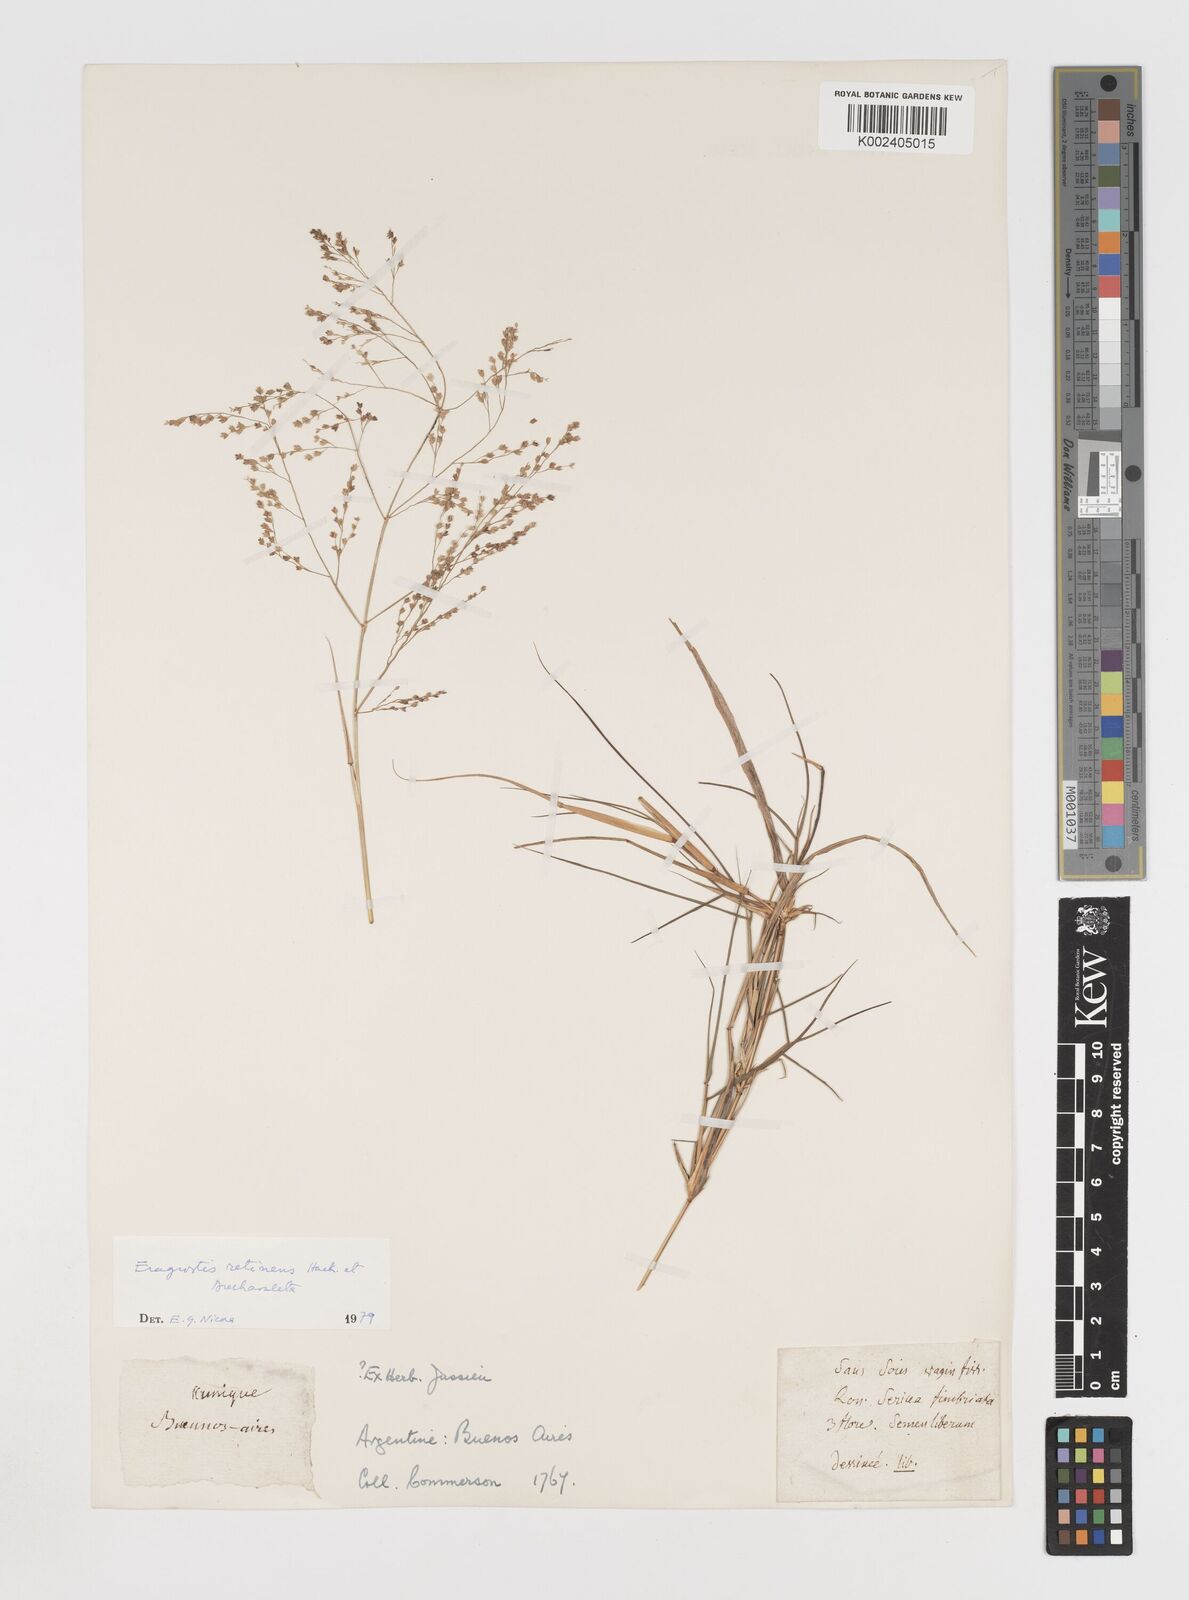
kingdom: Plantae
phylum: Tracheophyta
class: Liliopsida
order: Poales
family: Poaceae
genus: Eragrostis
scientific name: Eragrostis retinens
